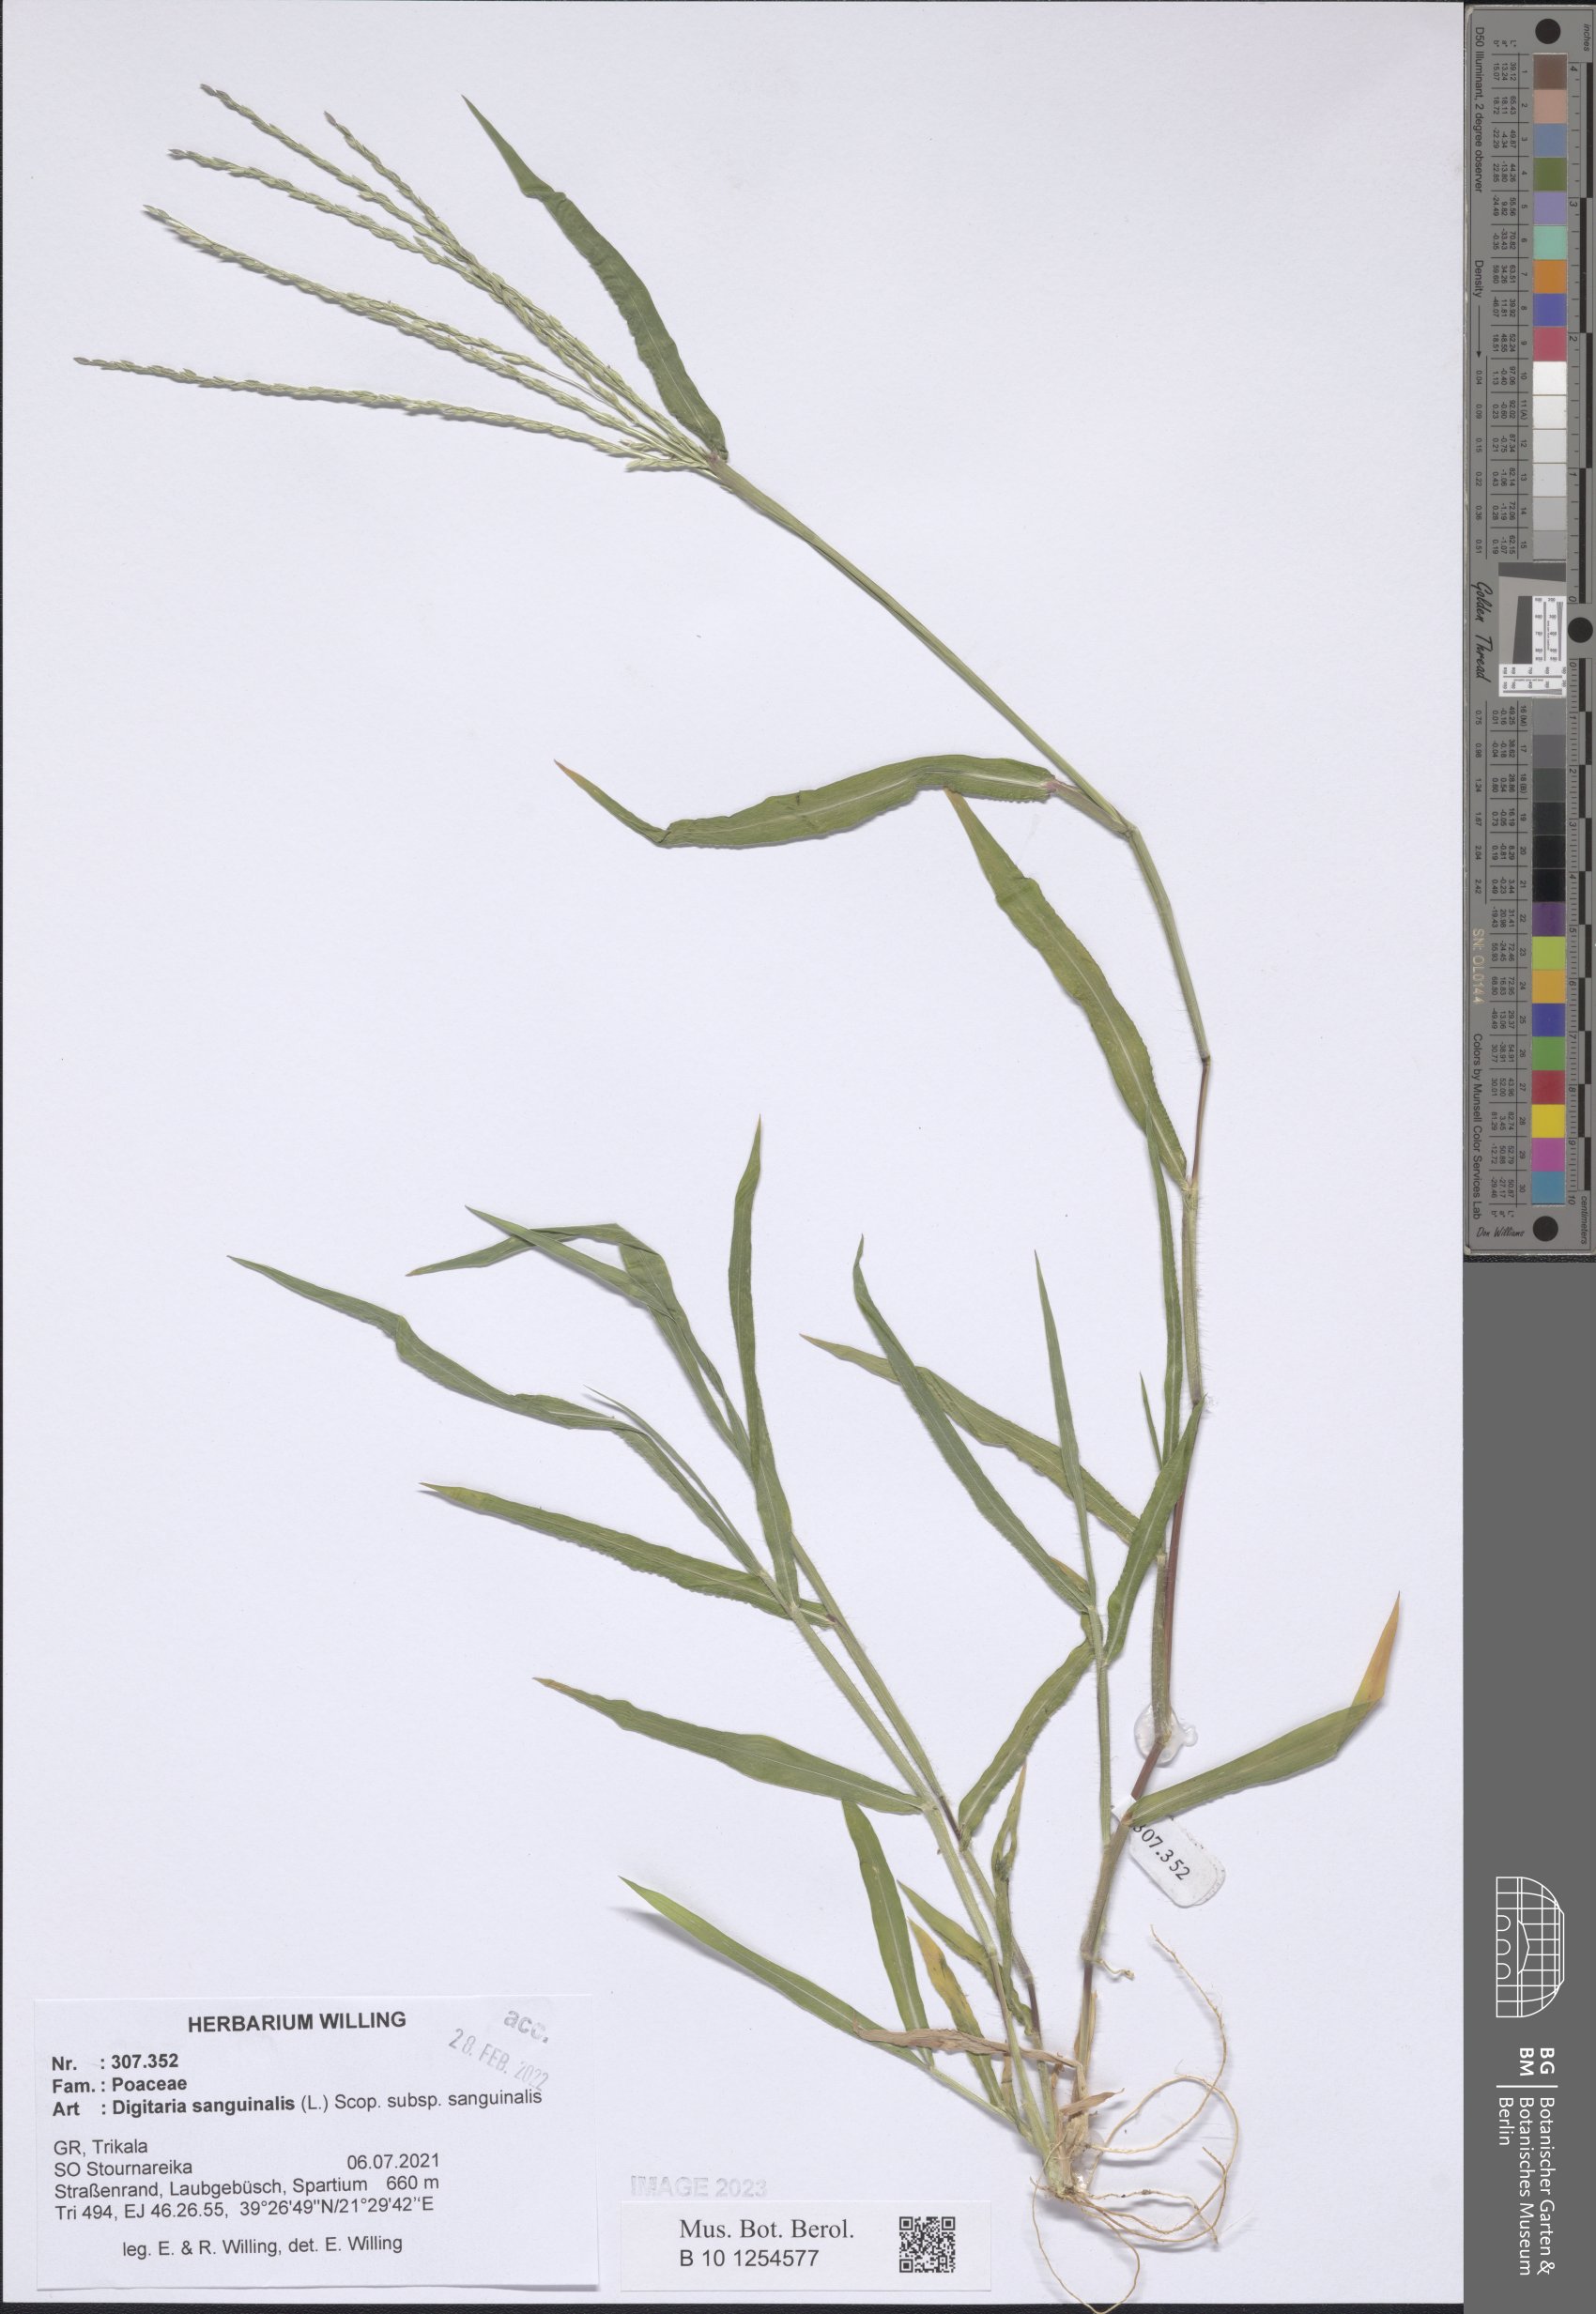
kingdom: Plantae
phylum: Tracheophyta
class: Liliopsida
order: Poales
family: Poaceae
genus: Digitaria
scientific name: Digitaria sanguinalis
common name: Hairy crabgrass
